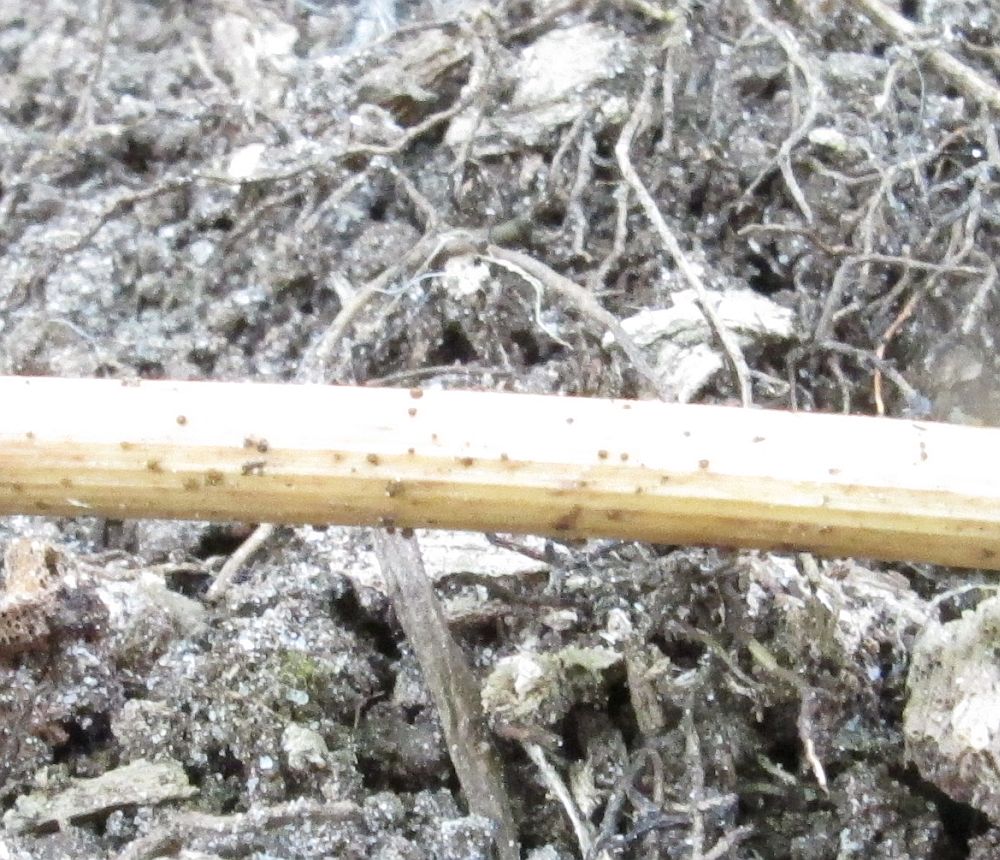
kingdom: Fungi
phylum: Ascomycota
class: Leotiomycetes
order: Helotiales
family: Solenopeziaceae
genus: Lasiobelonium
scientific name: Lasiobelonium nidulus
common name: rede-frynseskive
